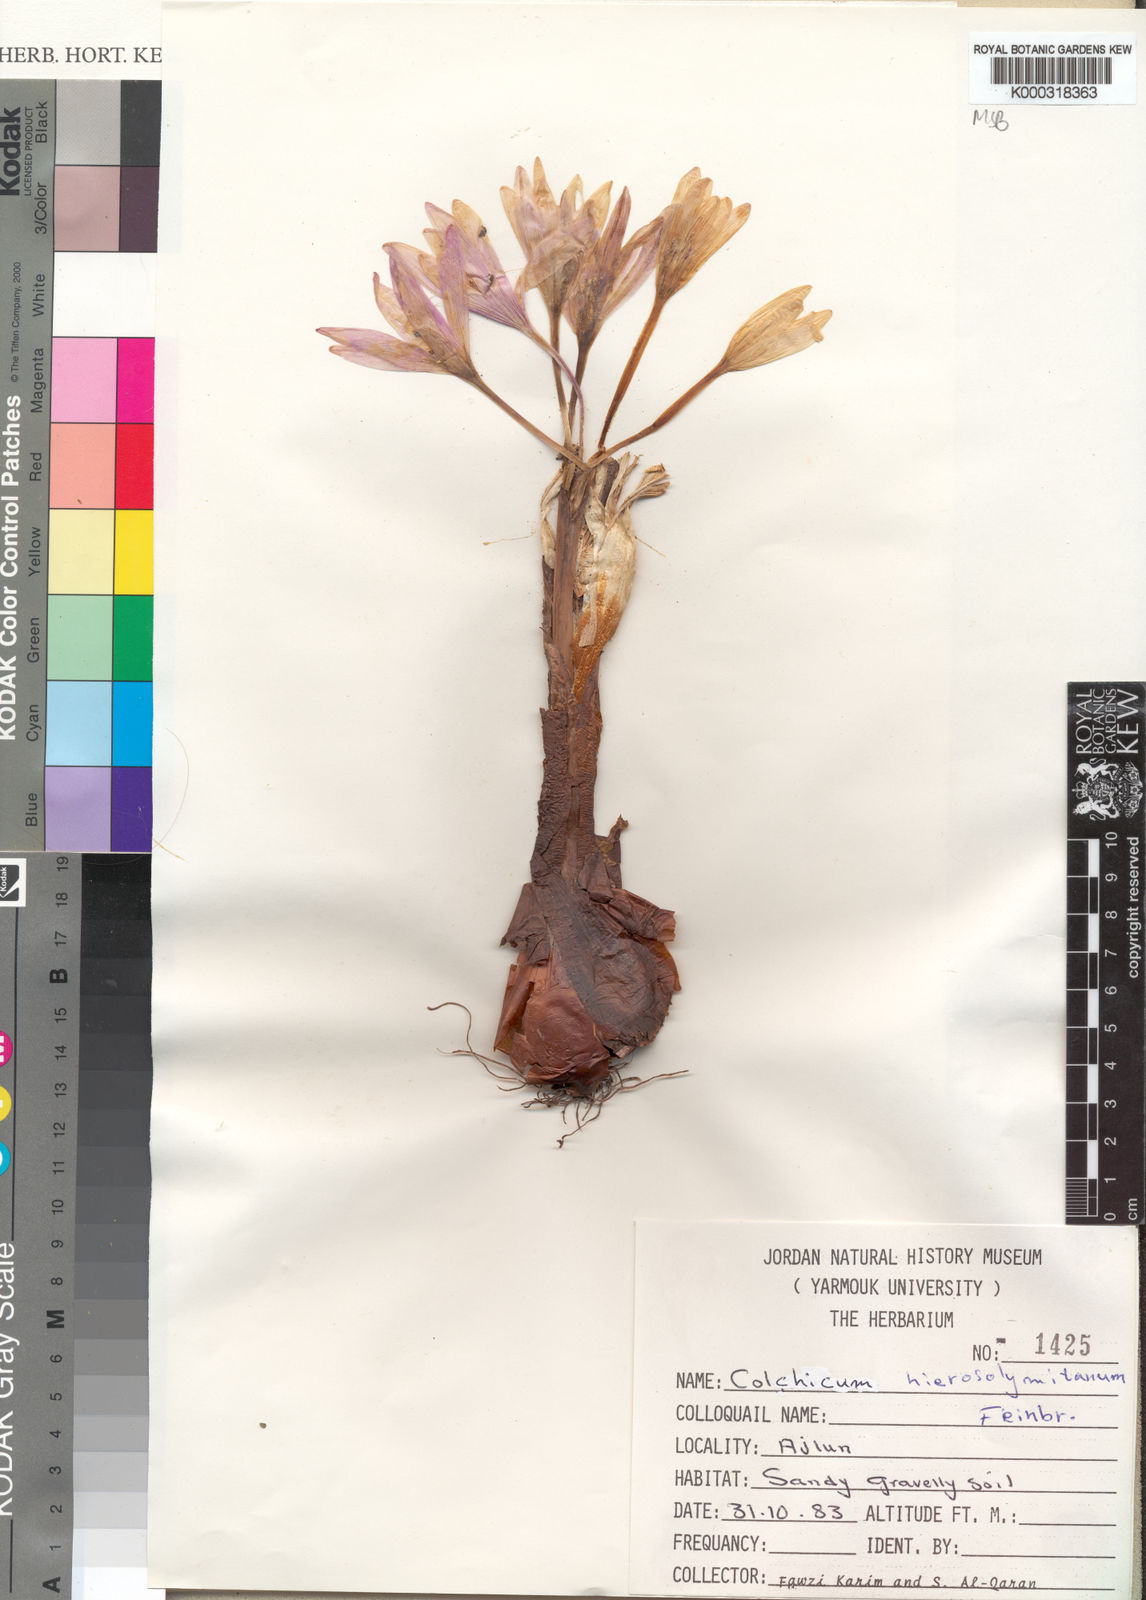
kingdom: Plantae
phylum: Tracheophyta
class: Liliopsida
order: Liliales
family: Colchicaceae
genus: Colchicum
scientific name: Colchicum hierosolymitanum
